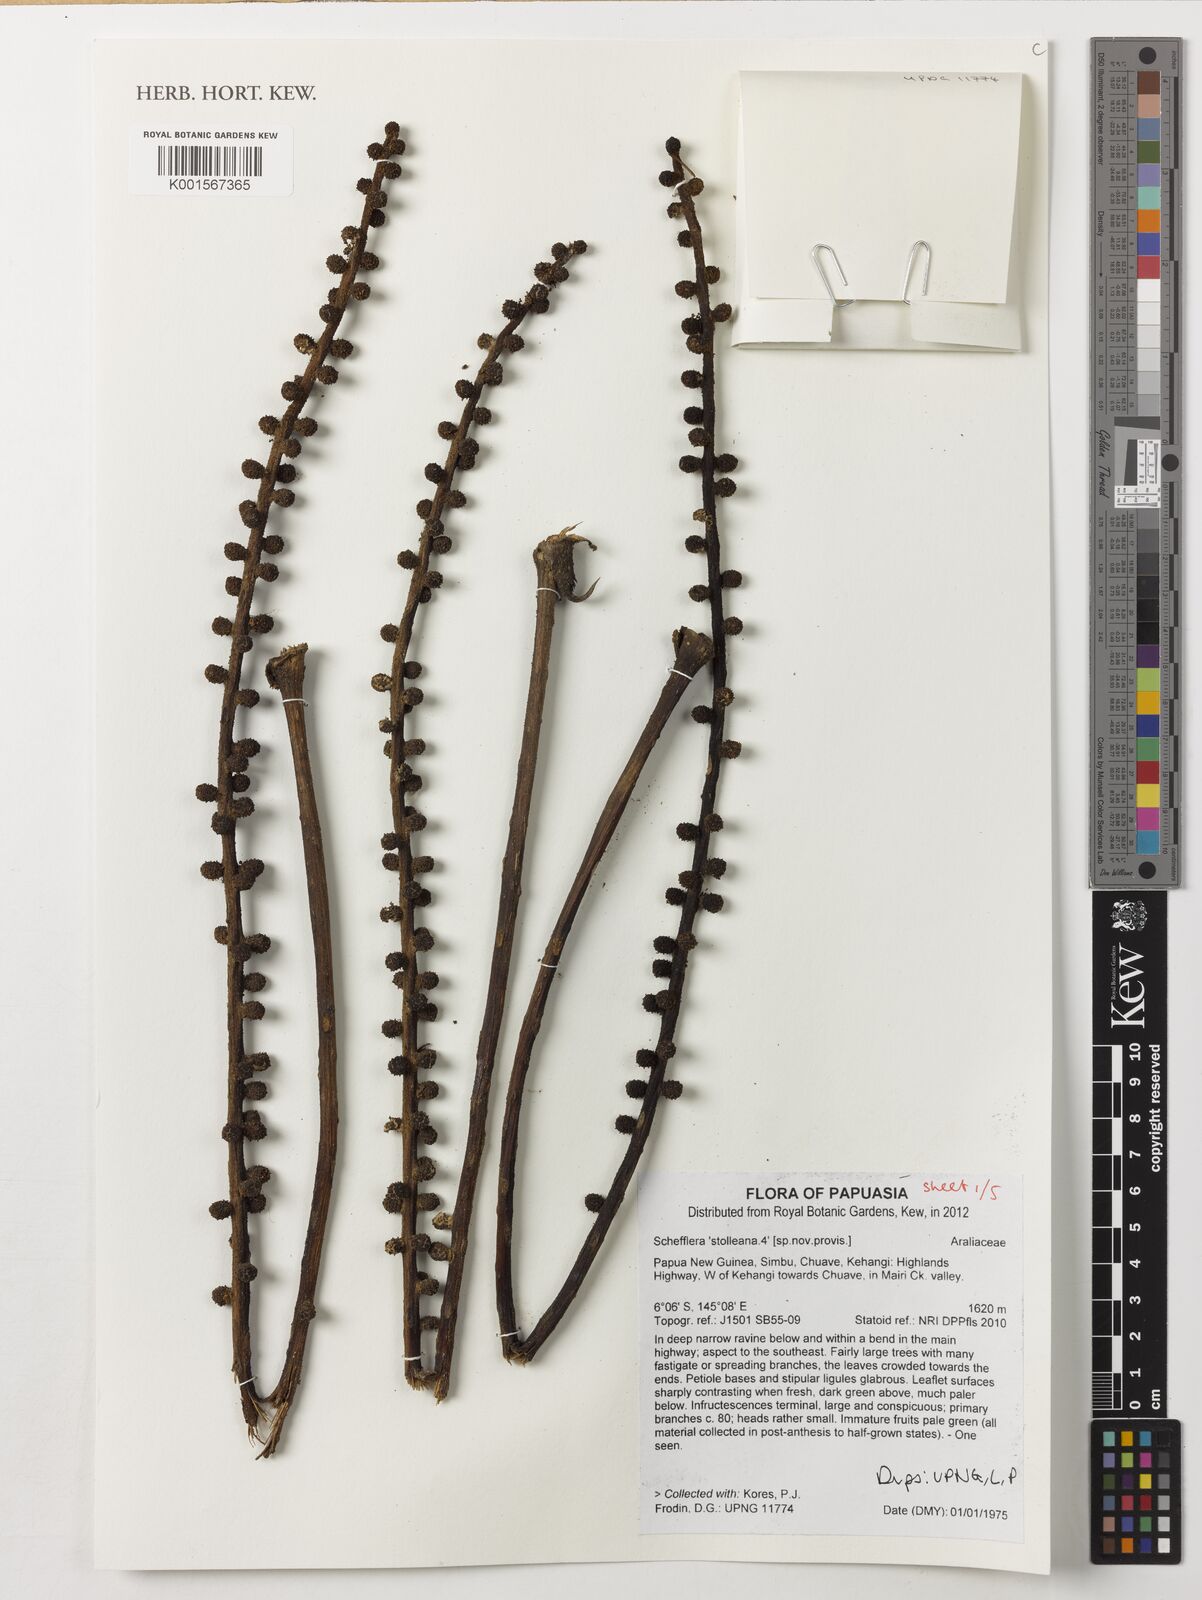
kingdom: Plantae
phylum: Tracheophyta
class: Magnoliopsida
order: Apiales
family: Araliaceae
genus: Heptapleurum
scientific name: Heptapleurum stolleanum
